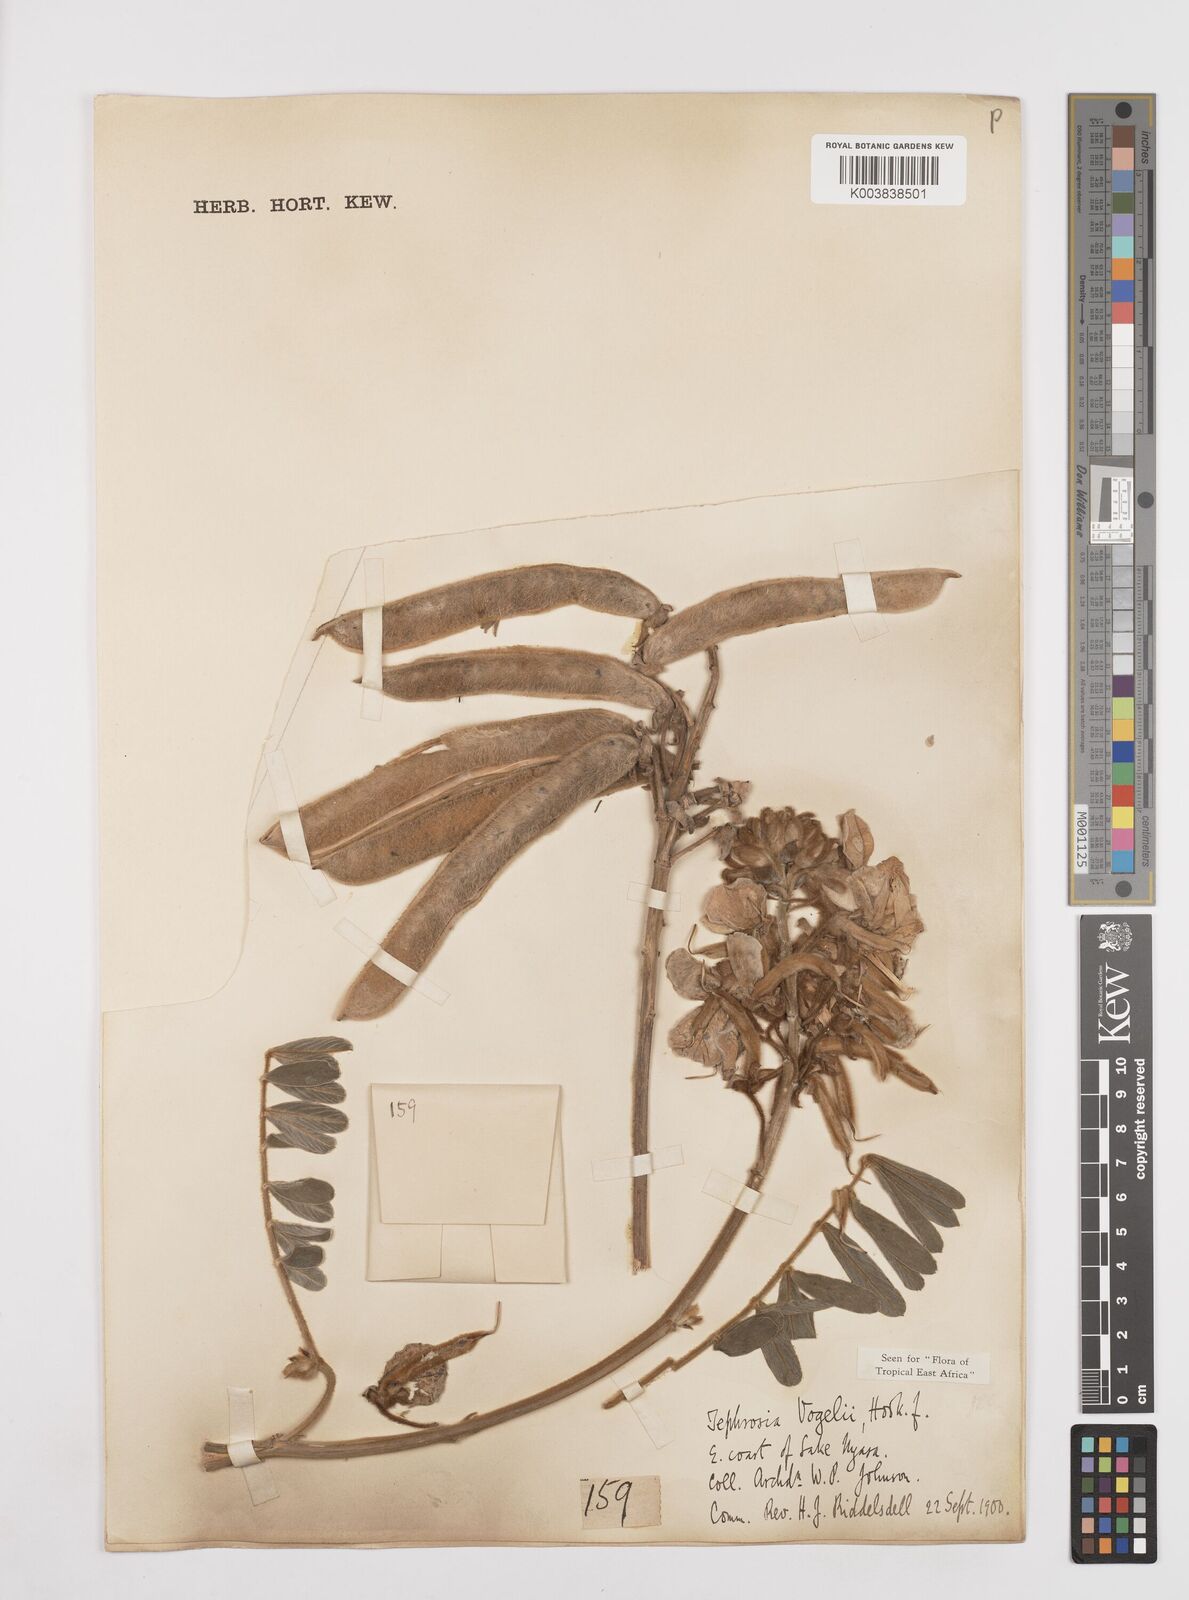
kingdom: Plantae
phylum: Tracheophyta
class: Magnoliopsida
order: Fabales
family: Fabaceae
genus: Tephrosia
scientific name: Tephrosia vogelii
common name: Vogel tephrosia
